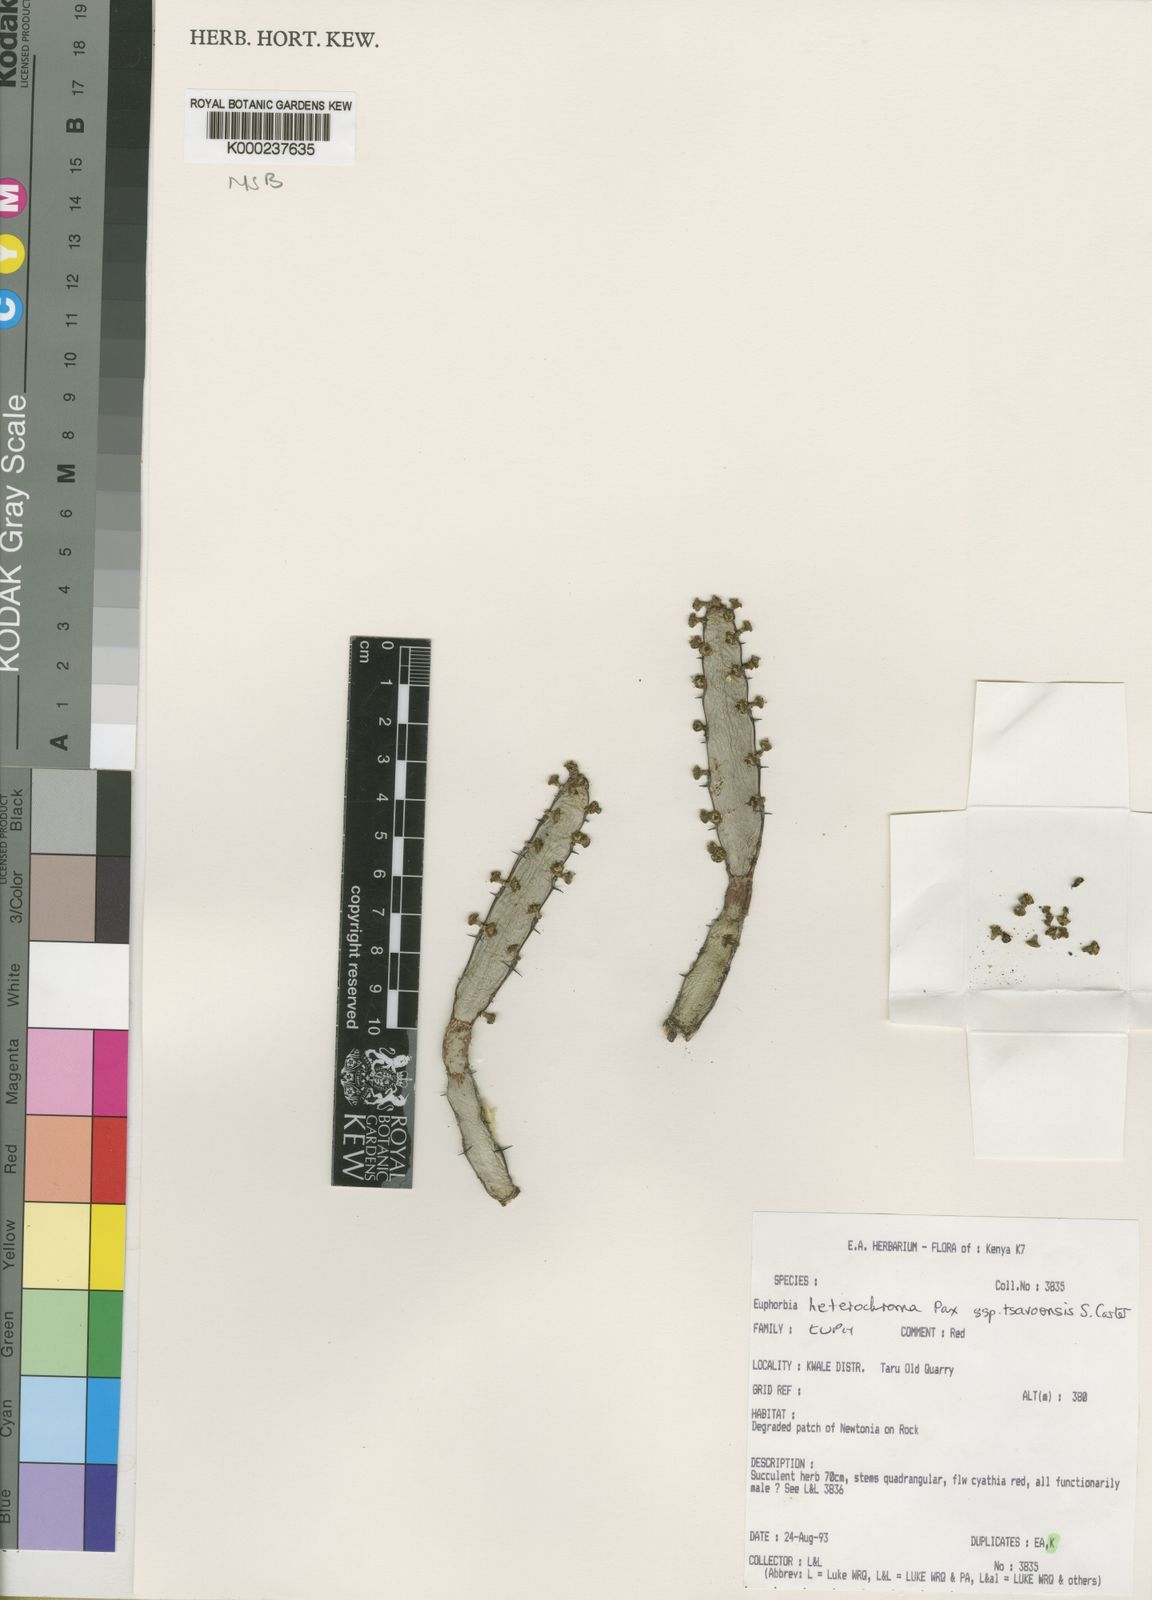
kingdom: Plantae
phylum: Tracheophyta
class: Magnoliopsida
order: Malpighiales
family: Euphorbiaceae
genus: Euphorbia
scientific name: Euphorbia heterochroma
